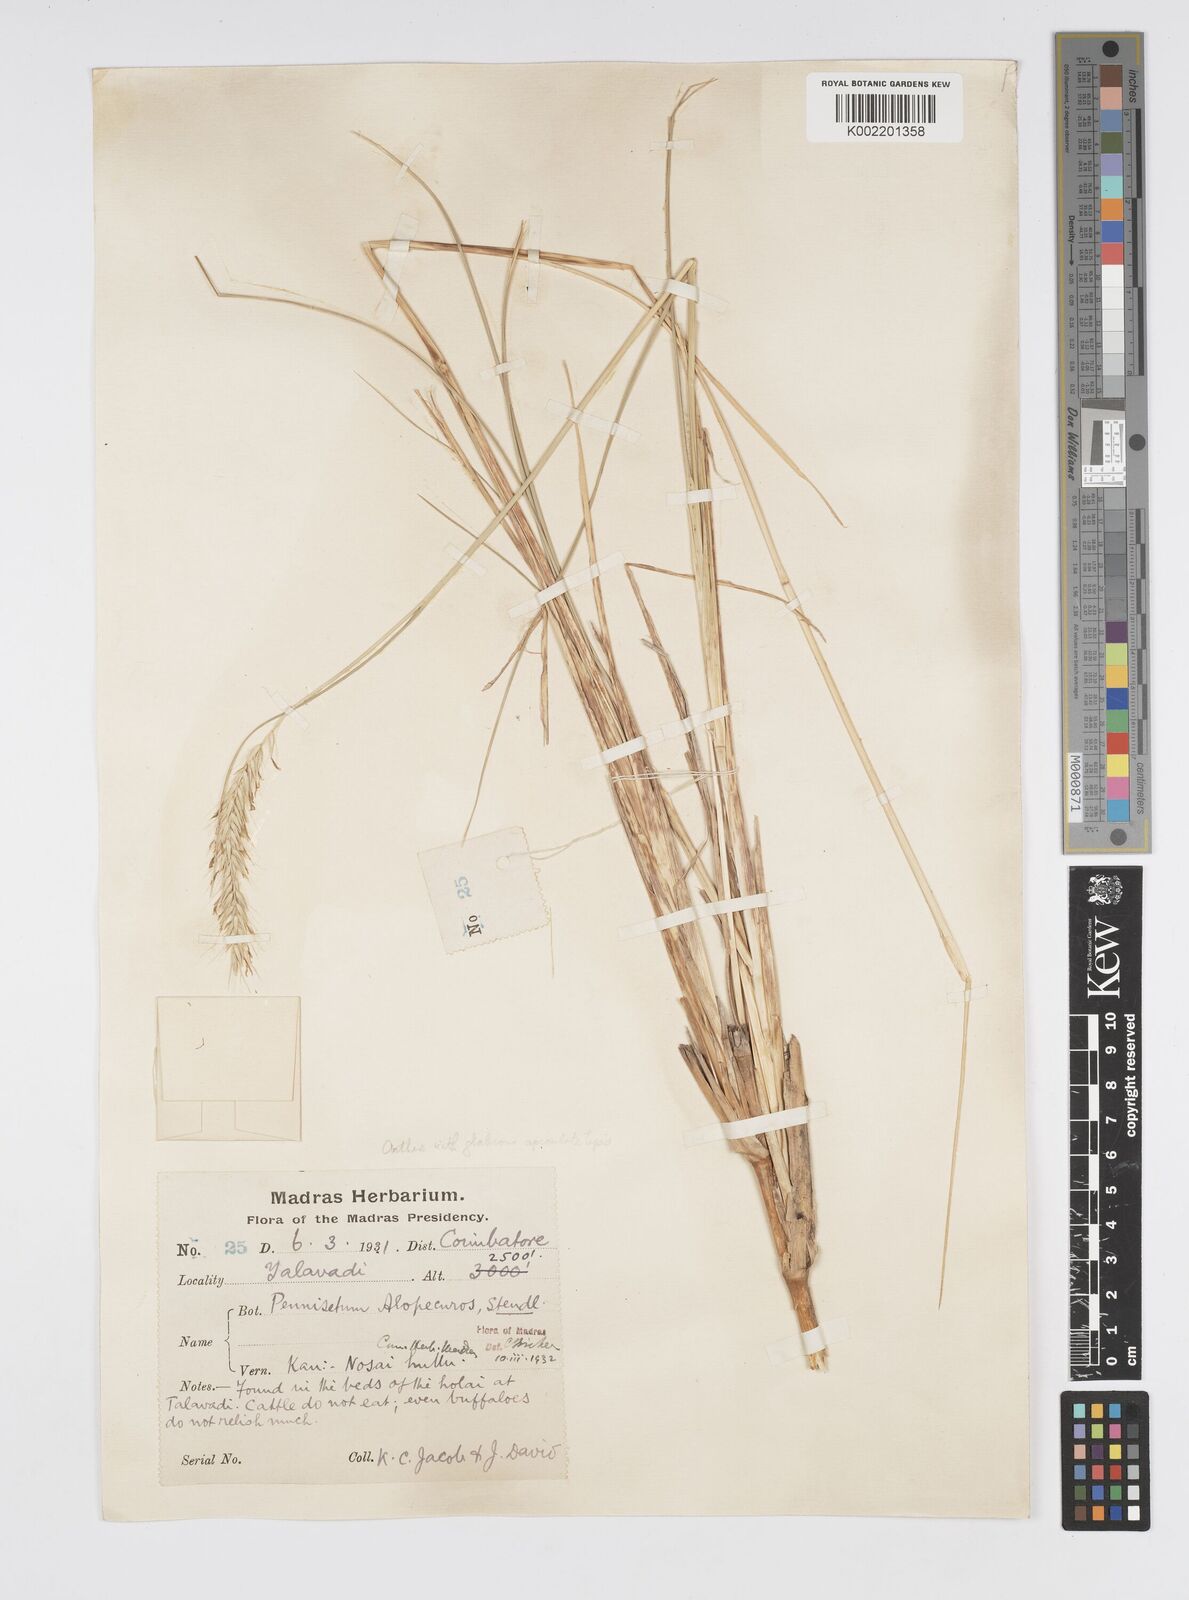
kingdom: Plantae
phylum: Tracheophyta
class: Liliopsida
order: Poales
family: Poaceae
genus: Cenchrus
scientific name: Cenchrus hohenackeri
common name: Moya grass
